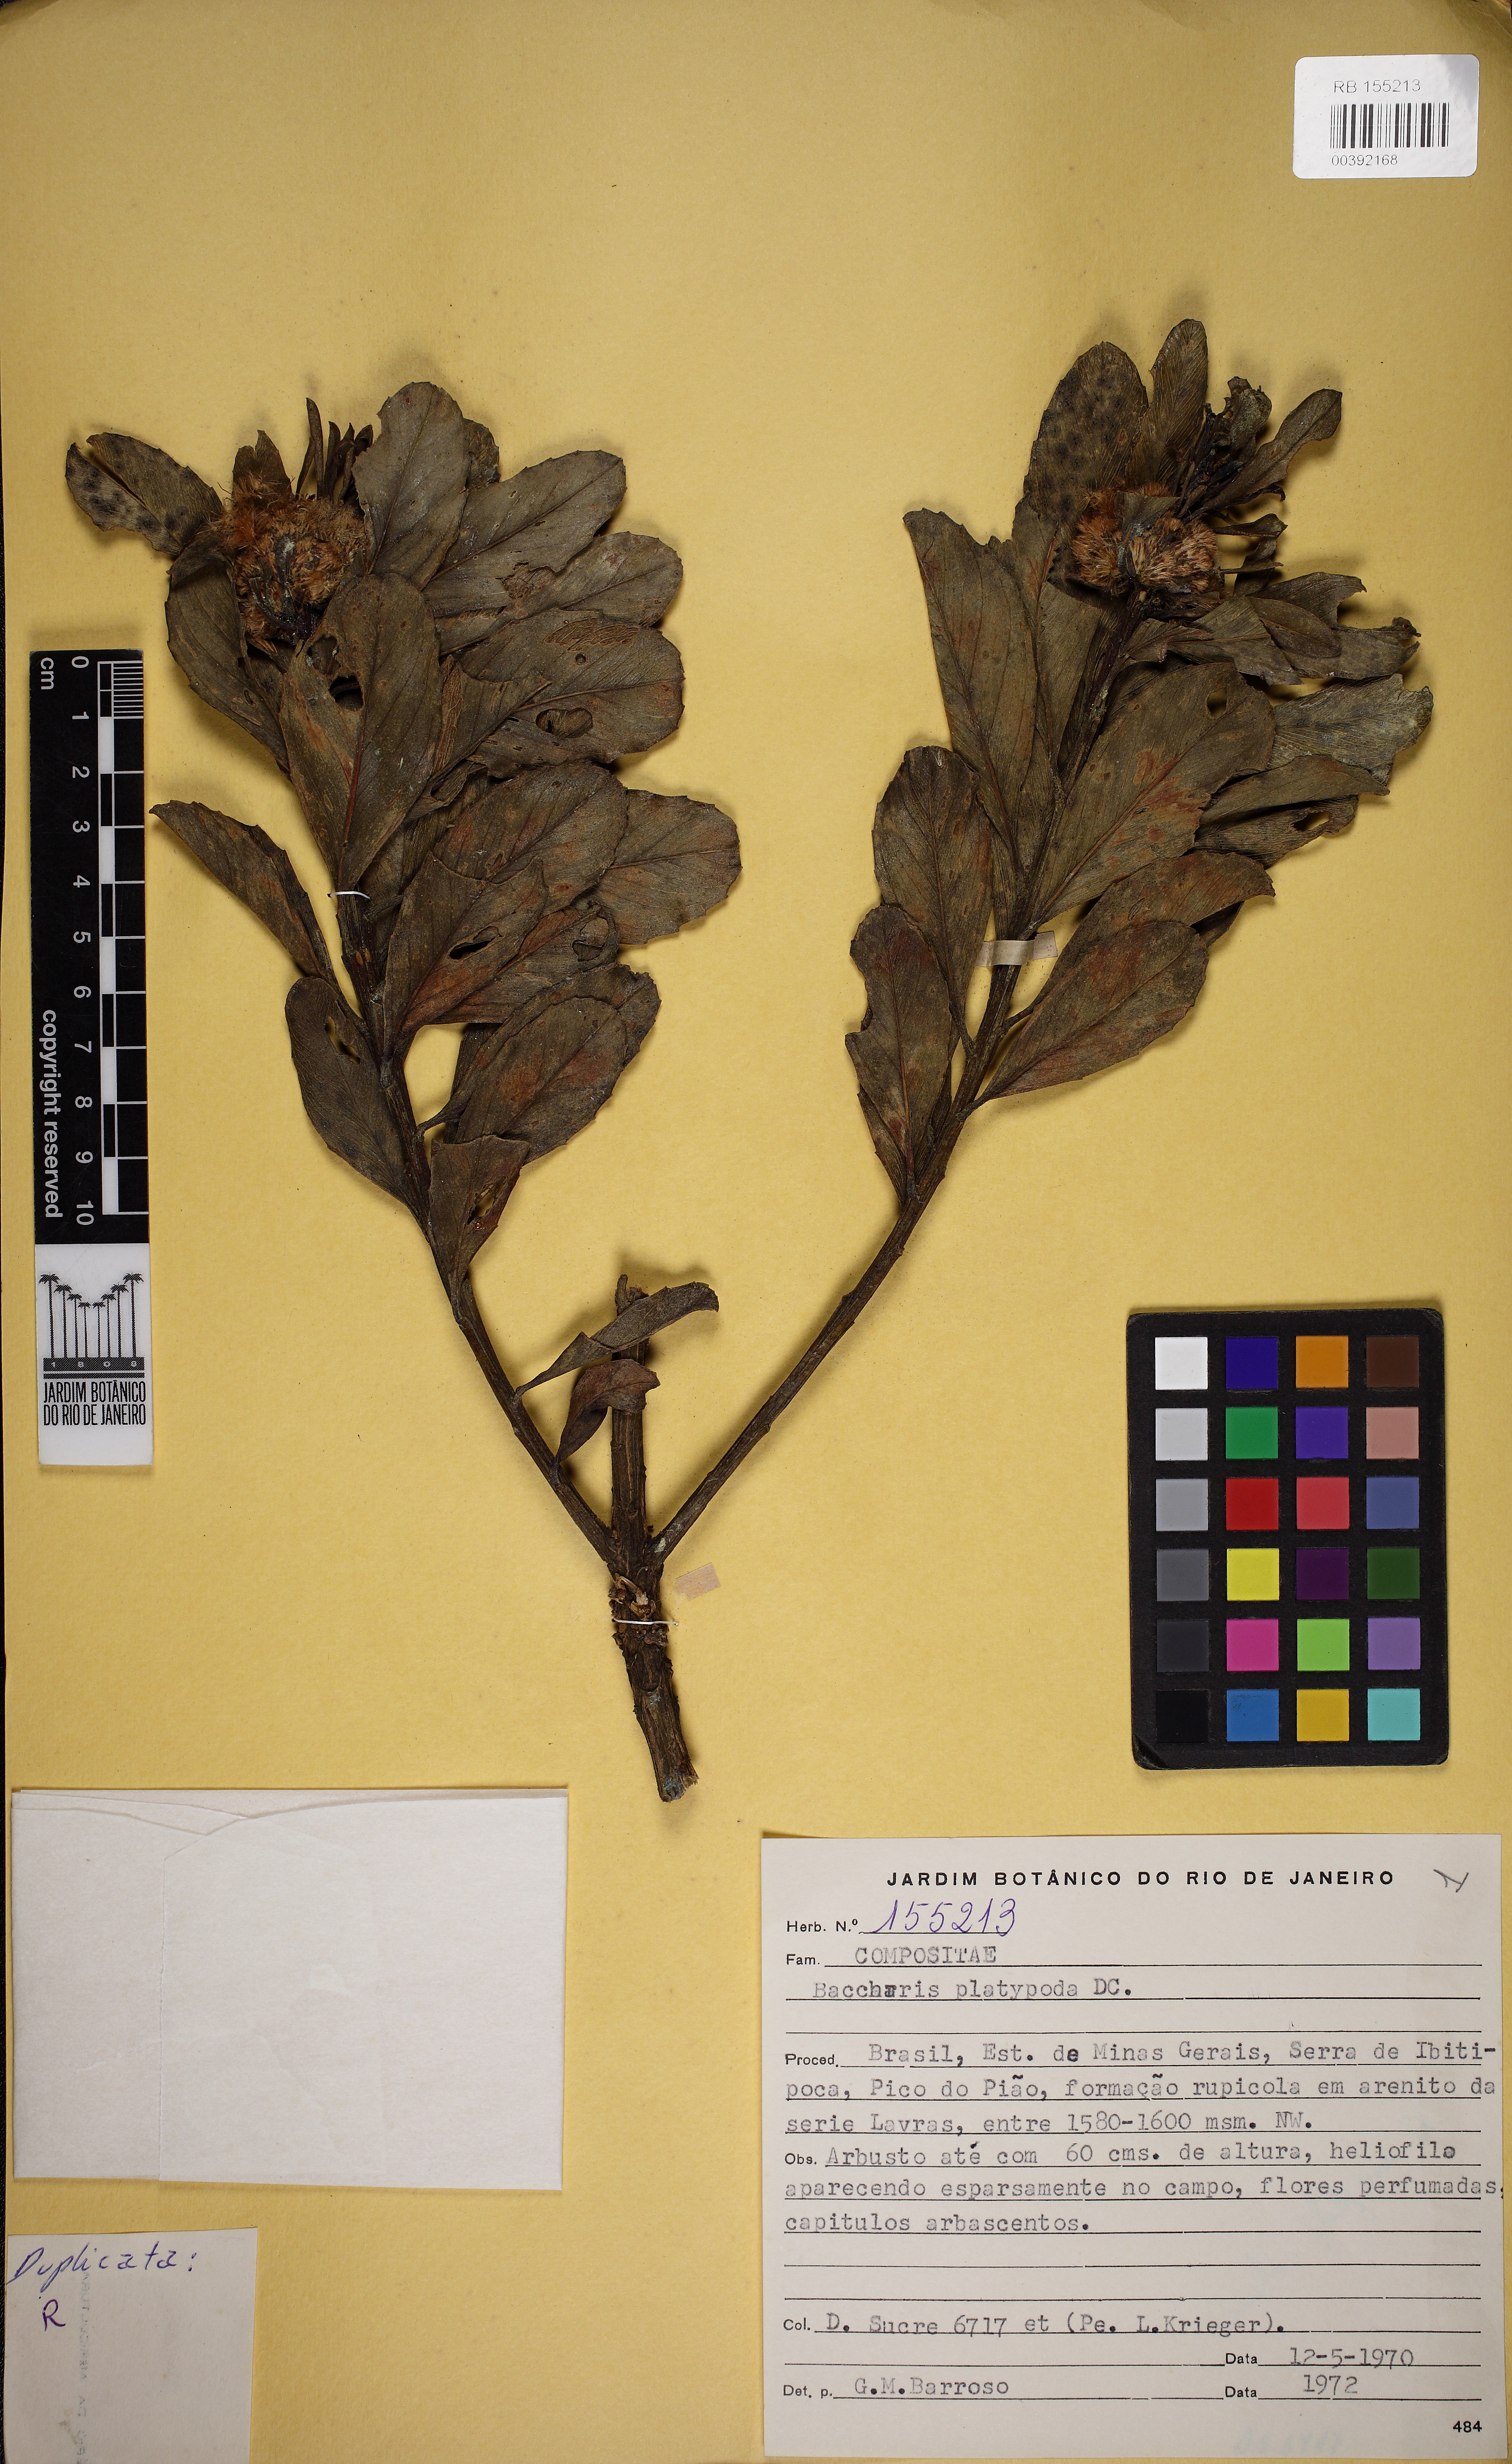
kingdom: Plantae
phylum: Tracheophyta
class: Magnoliopsida
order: Asterales
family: Asteraceae
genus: Baccharis
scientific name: Baccharis platypoda
